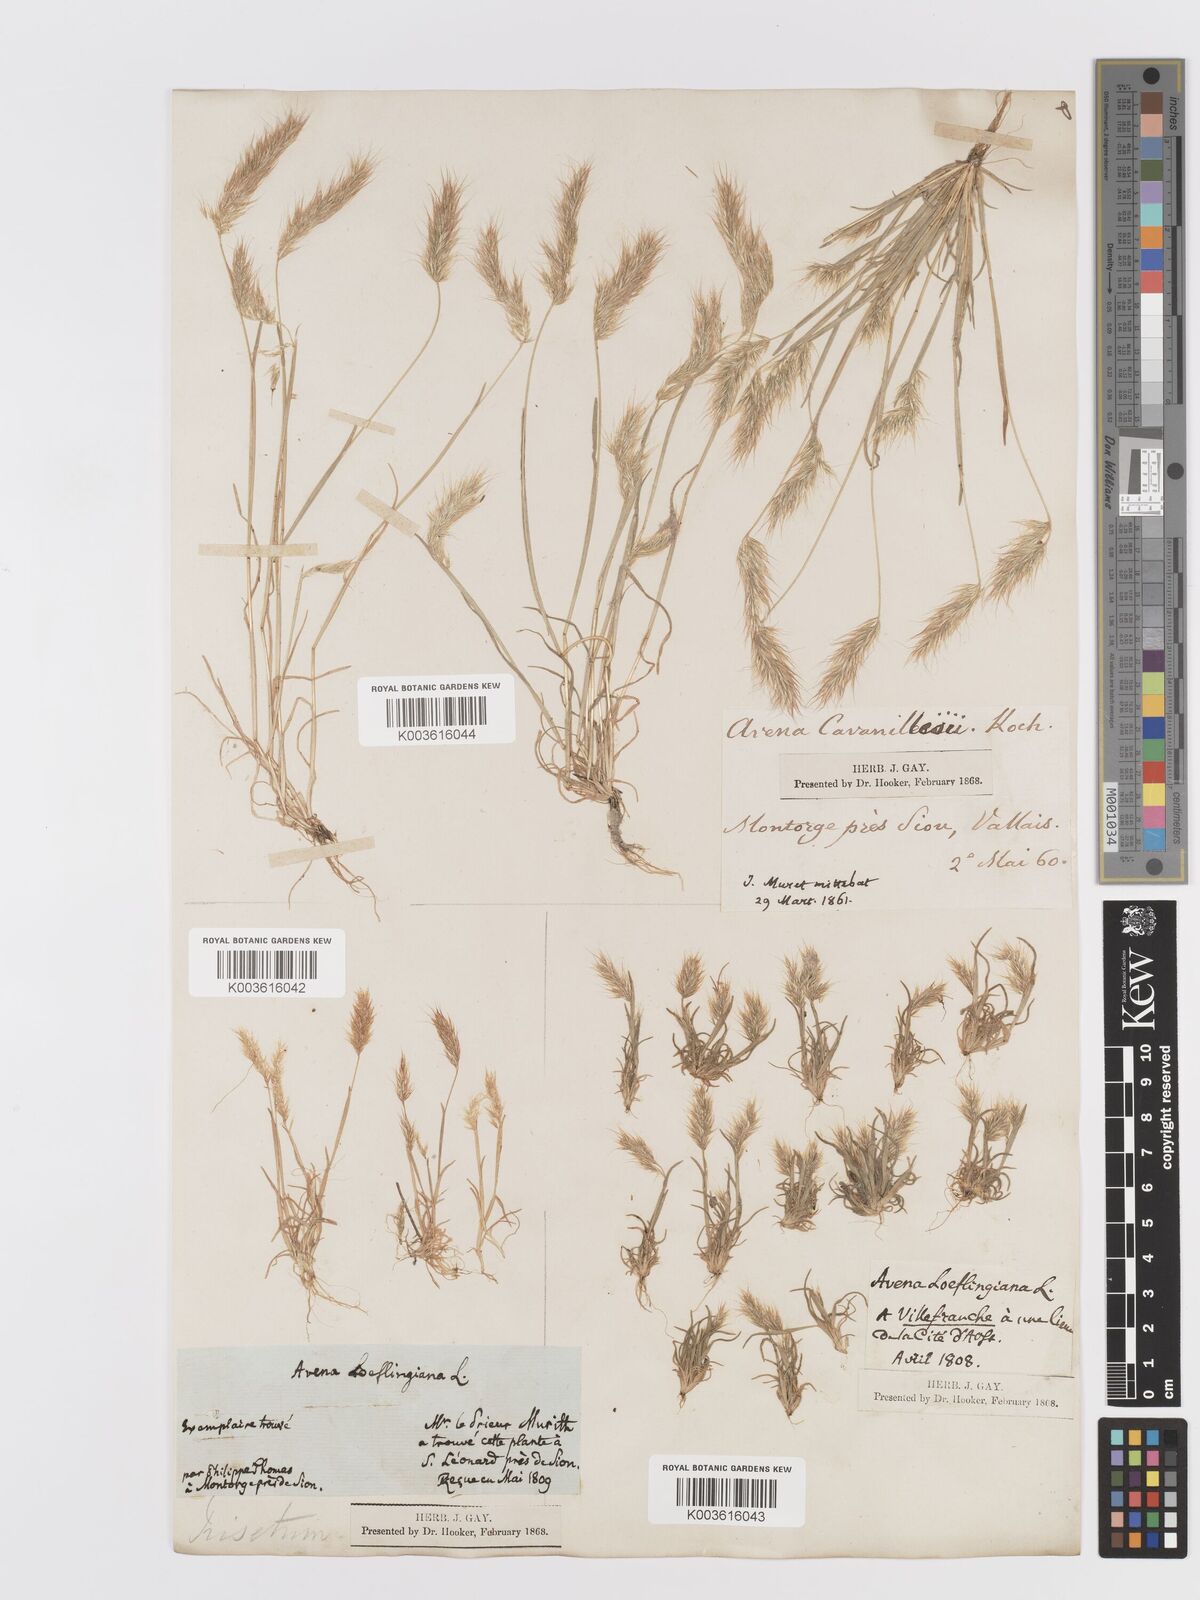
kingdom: Plantae
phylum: Tracheophyta
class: Liliopsida
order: Poales
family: Poaceae
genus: Trisetaria
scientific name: Trisetaria loeflingiana
